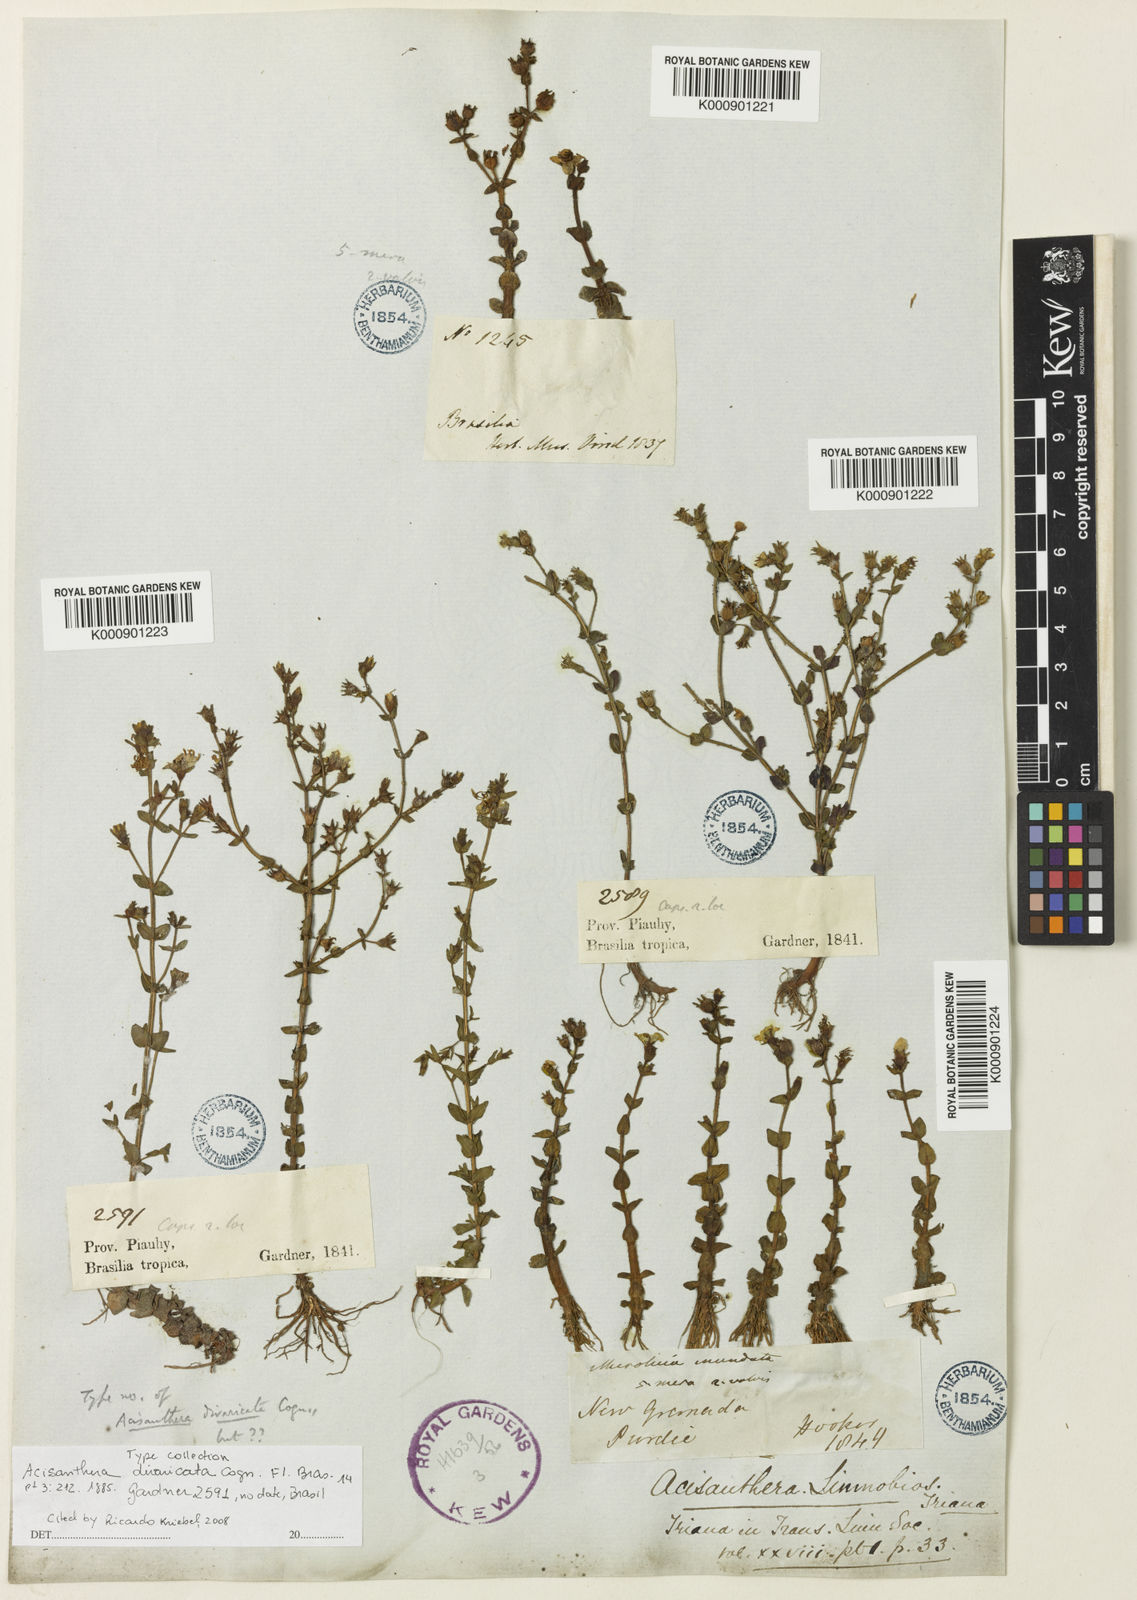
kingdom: Plantae
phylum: Tracheophyta
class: Magnoliopsida
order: Myrtales
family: Melastomataceae
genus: Acisanthera
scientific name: Acisanthera divaricata
